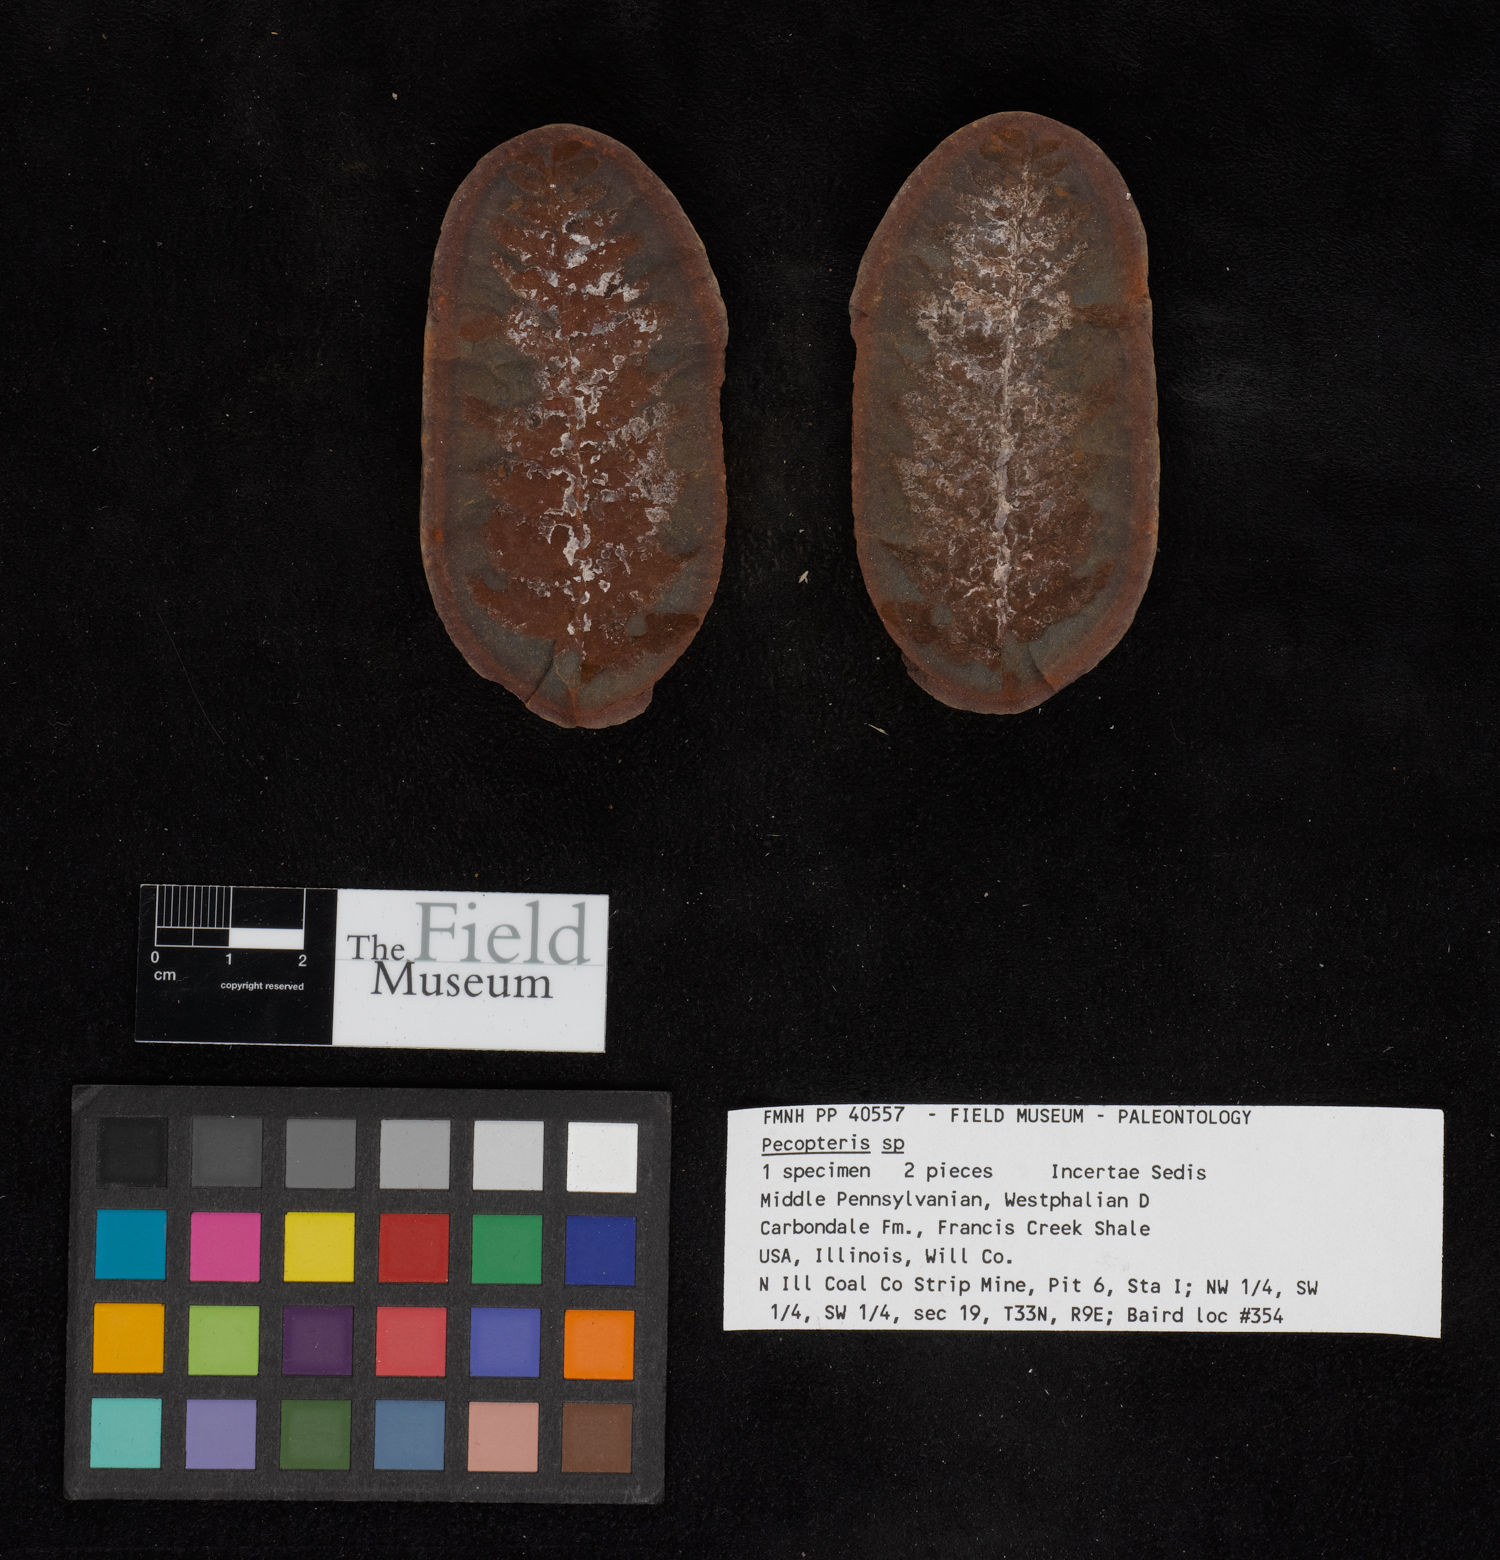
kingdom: Plantae
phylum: Tracheophyta
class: Polypodiopsida
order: Marattiales
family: Asterothecaceae
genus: Pecopteris
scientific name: Pecopteris
